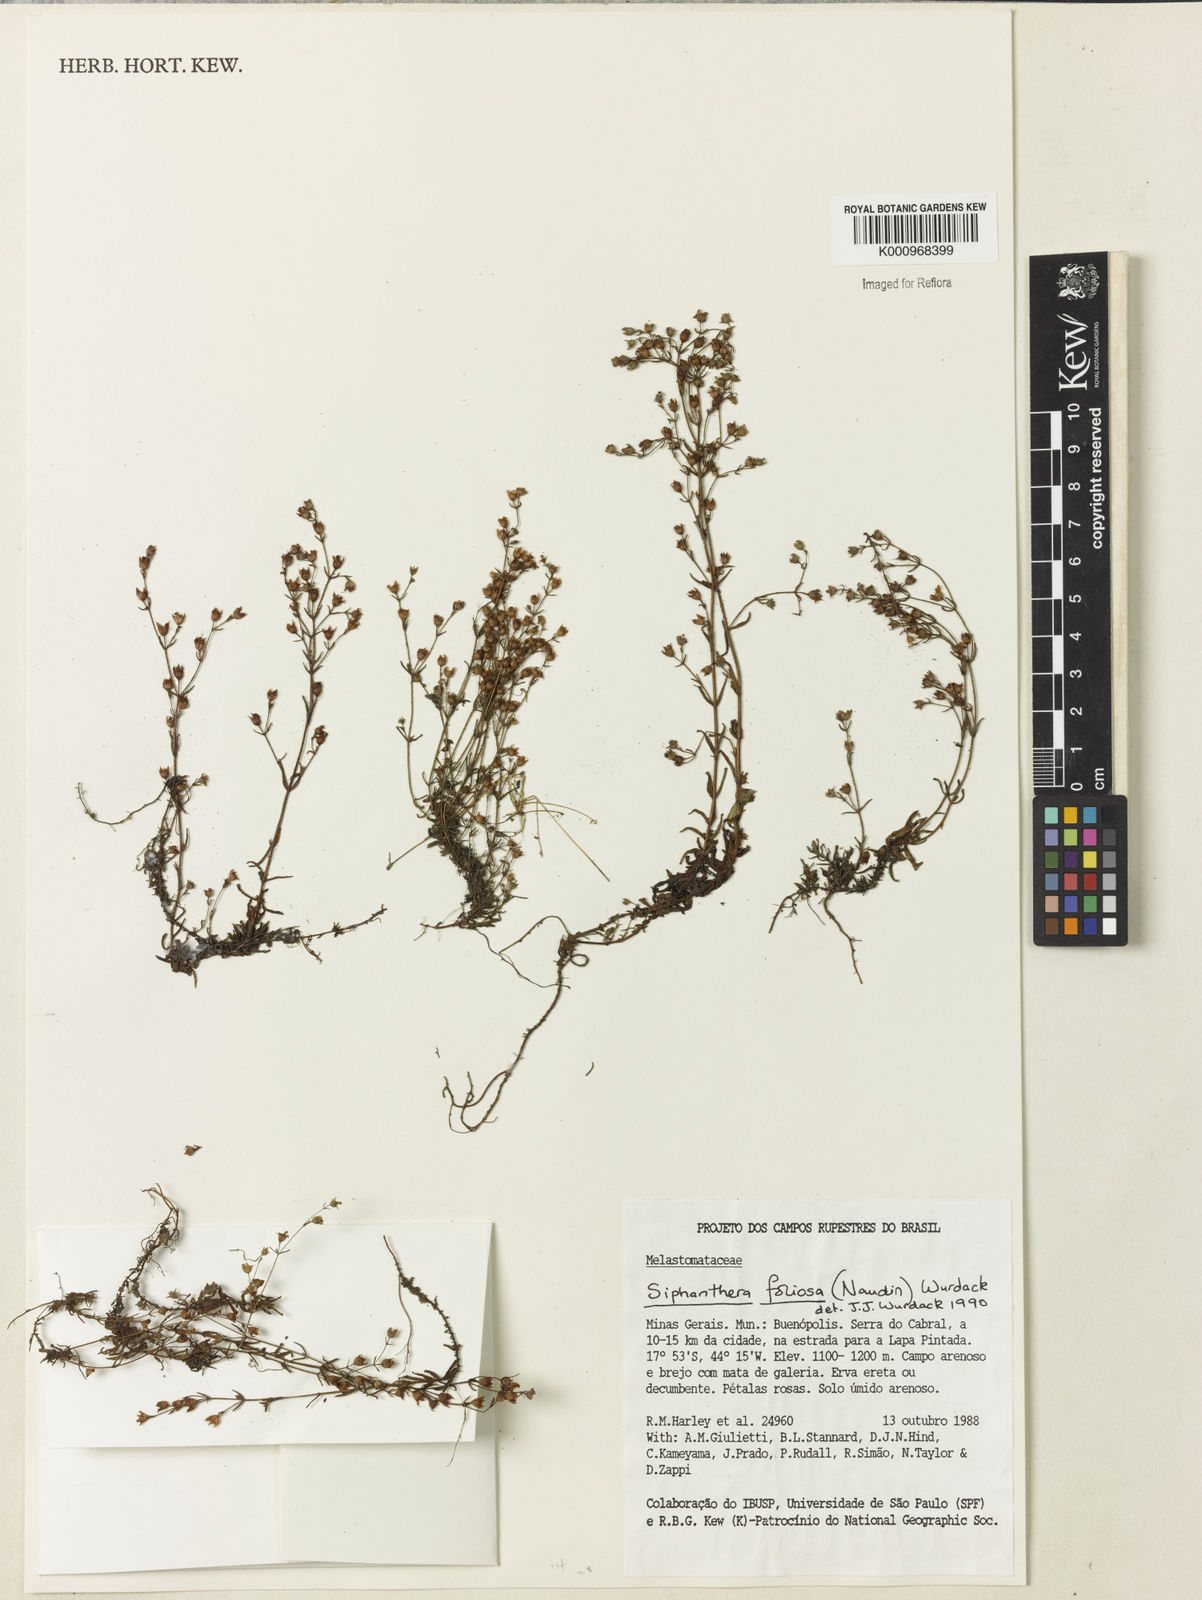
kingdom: Plantae
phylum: Tracheophyta
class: Magnoliopsida
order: Myrtales
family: Melastomataceae
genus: Siphanthera
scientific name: Siphanthera foliosa
